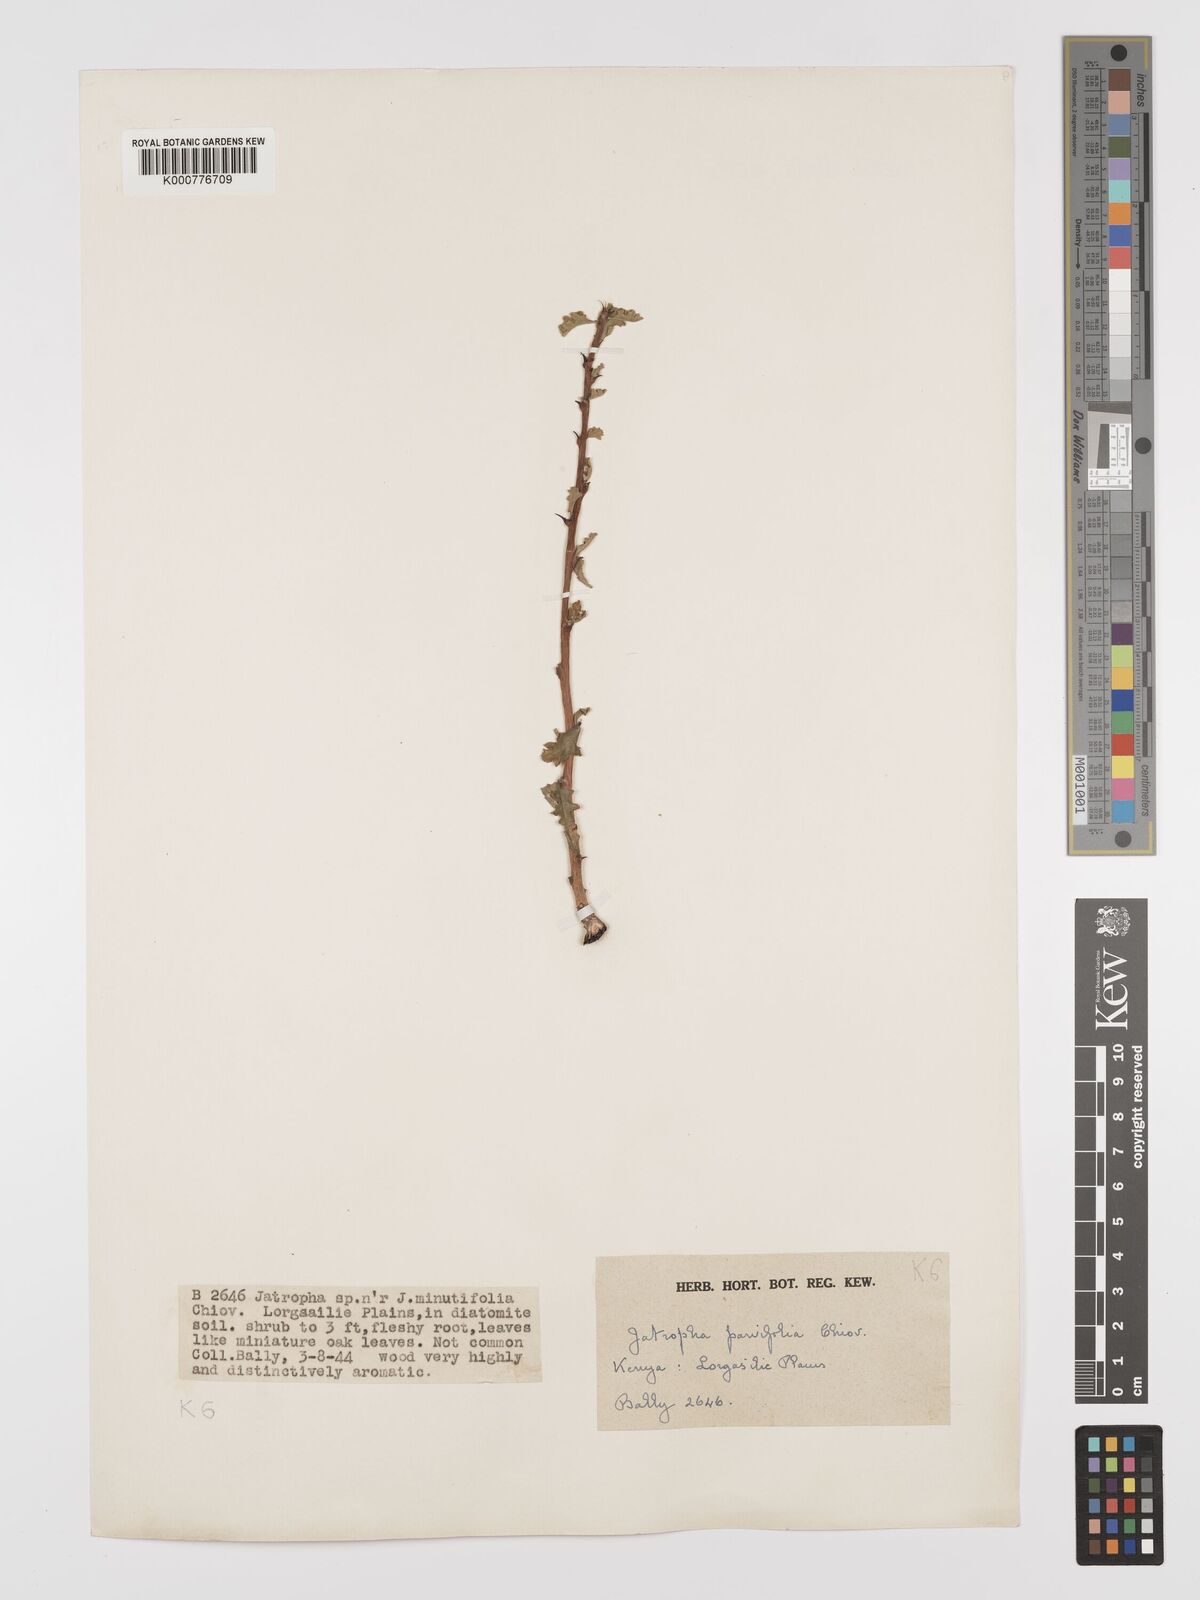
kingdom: Plantae
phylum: Tracheophyta
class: Magnoliopsida
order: Malpighiales
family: Euphorbiaceae
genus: Jatropha
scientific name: Jatropha rivae
